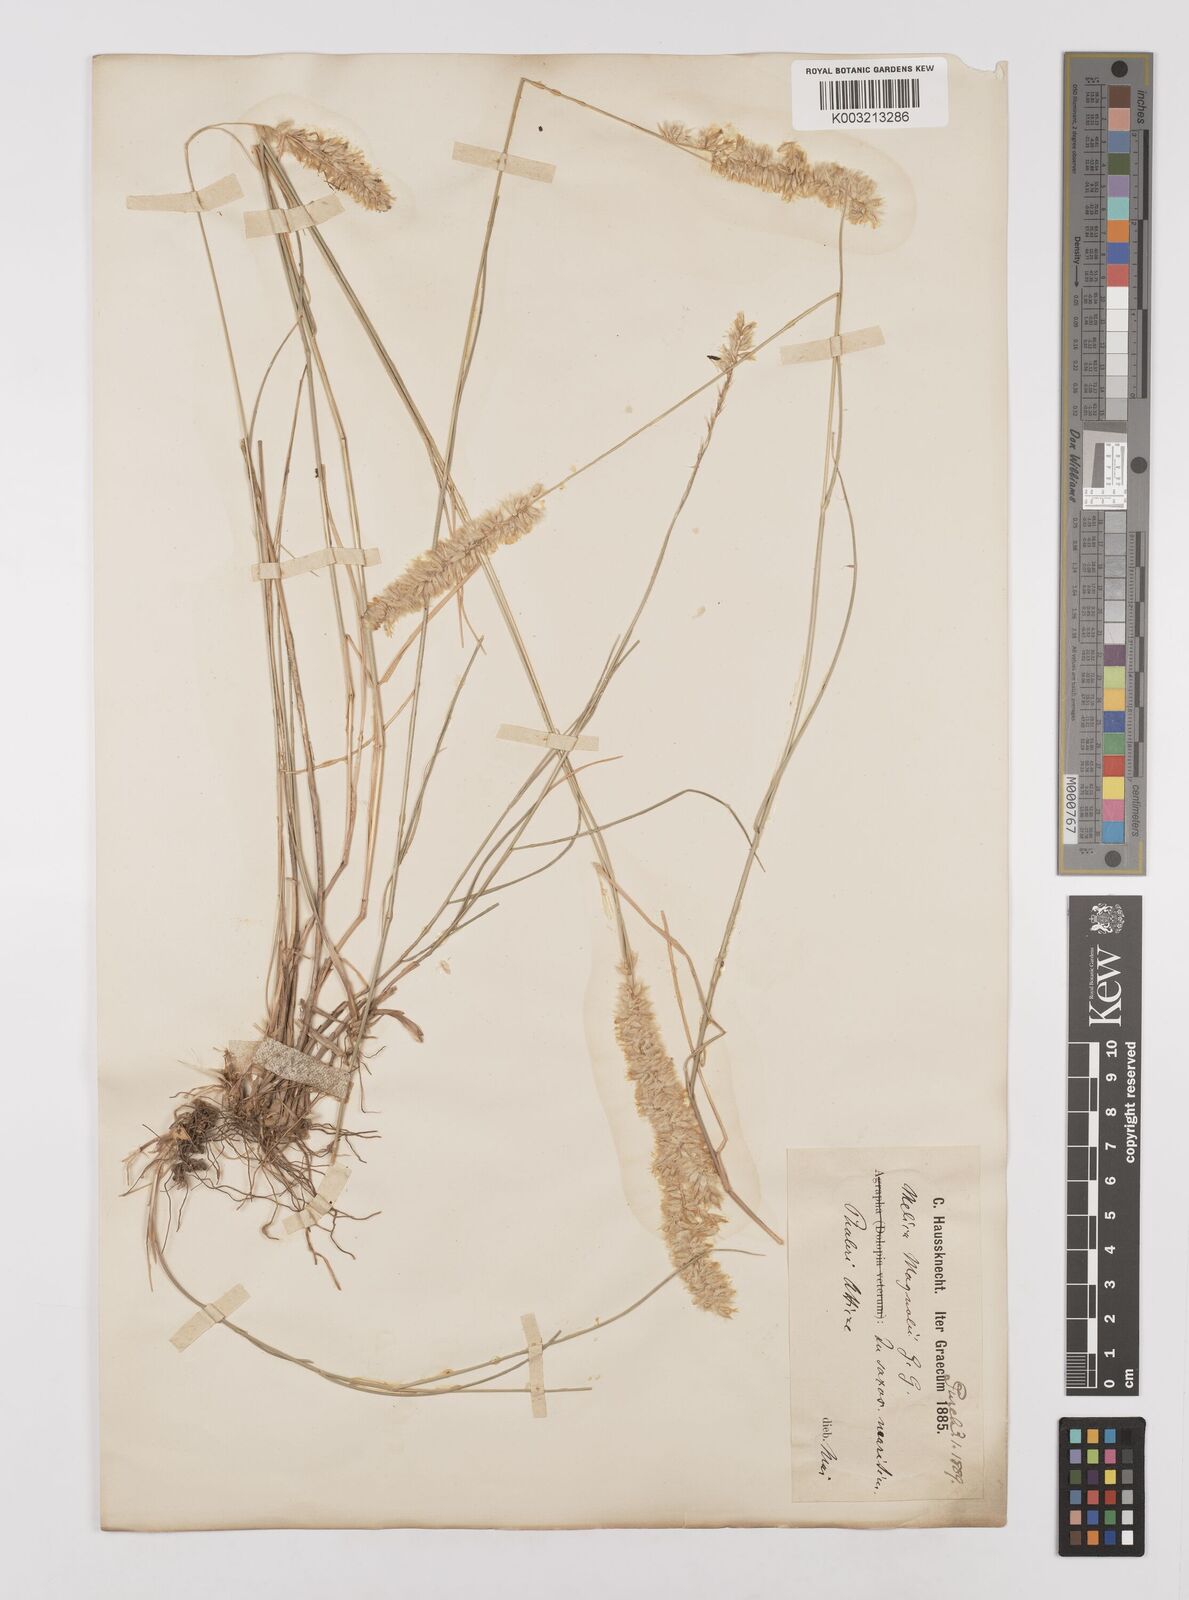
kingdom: Plantae
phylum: Tracheophyta
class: Liliopsida
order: Poales
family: Poaceae
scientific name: Poaceae
